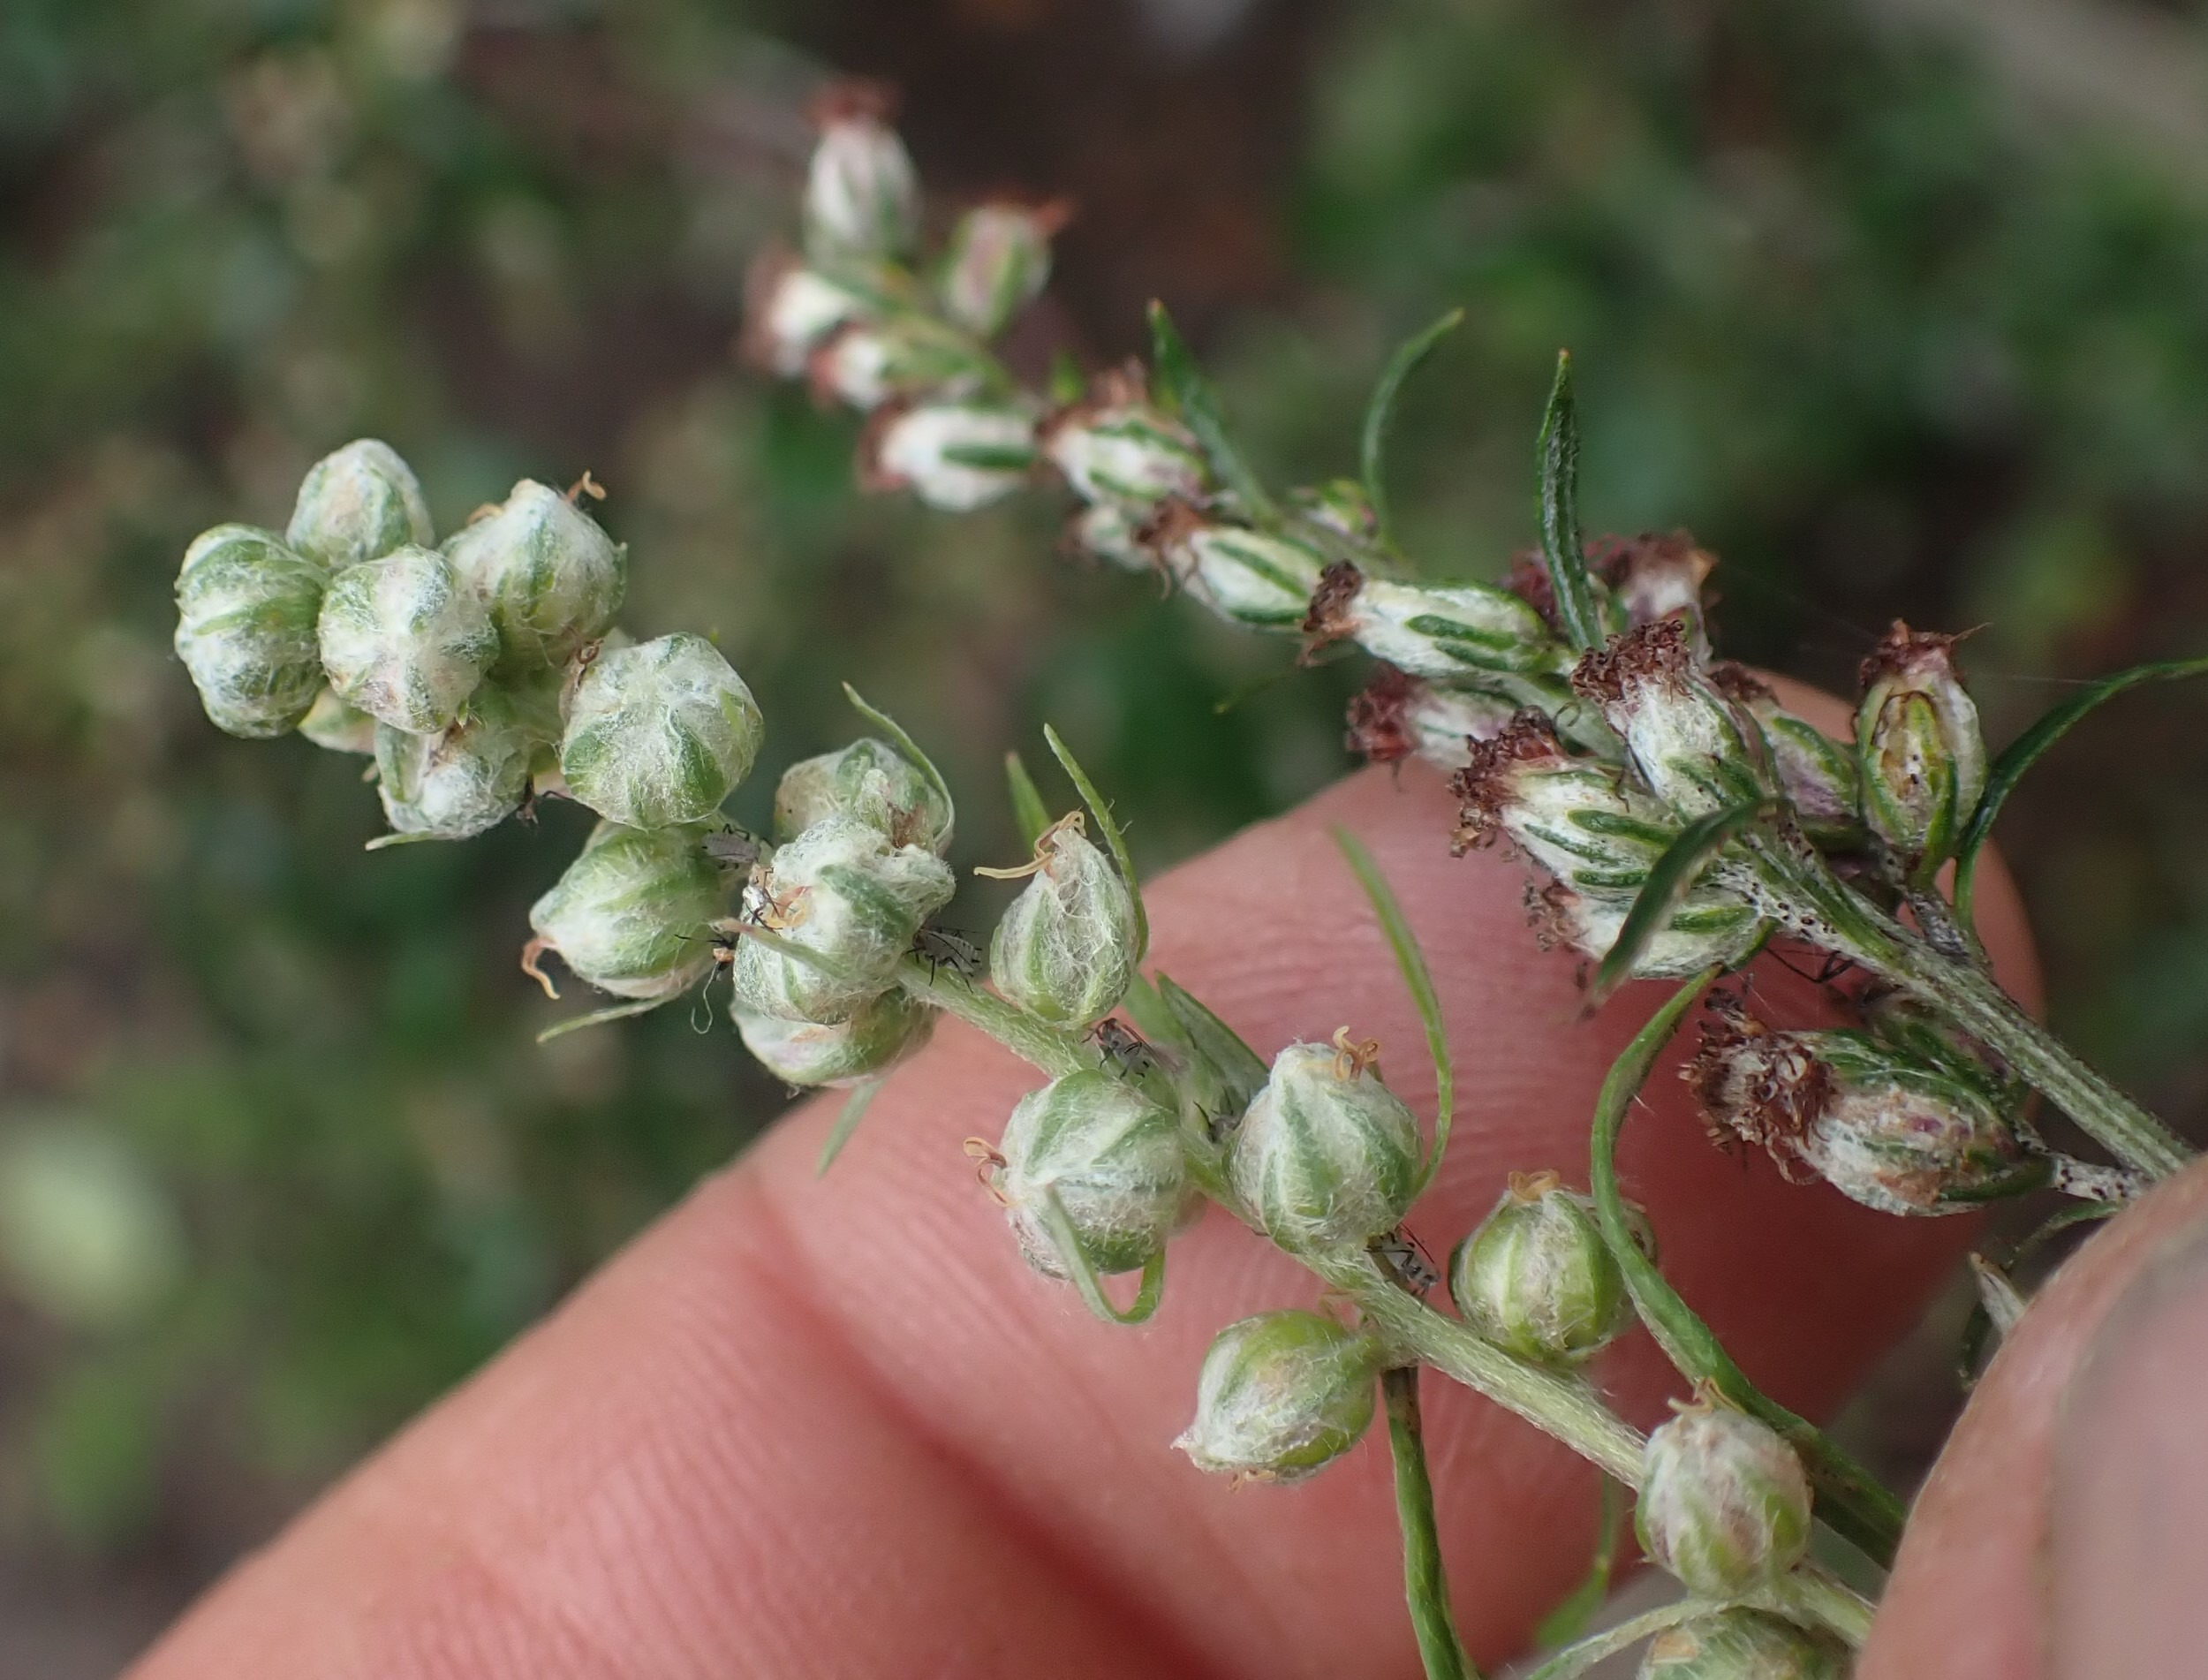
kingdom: Animalia
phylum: Arthropoda
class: Insecta
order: Diptera
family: Cecidomyiidae
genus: Ametrodiplosis
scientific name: Ametrodiplosis rudimentalis
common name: Bynkekurvgalmyg
